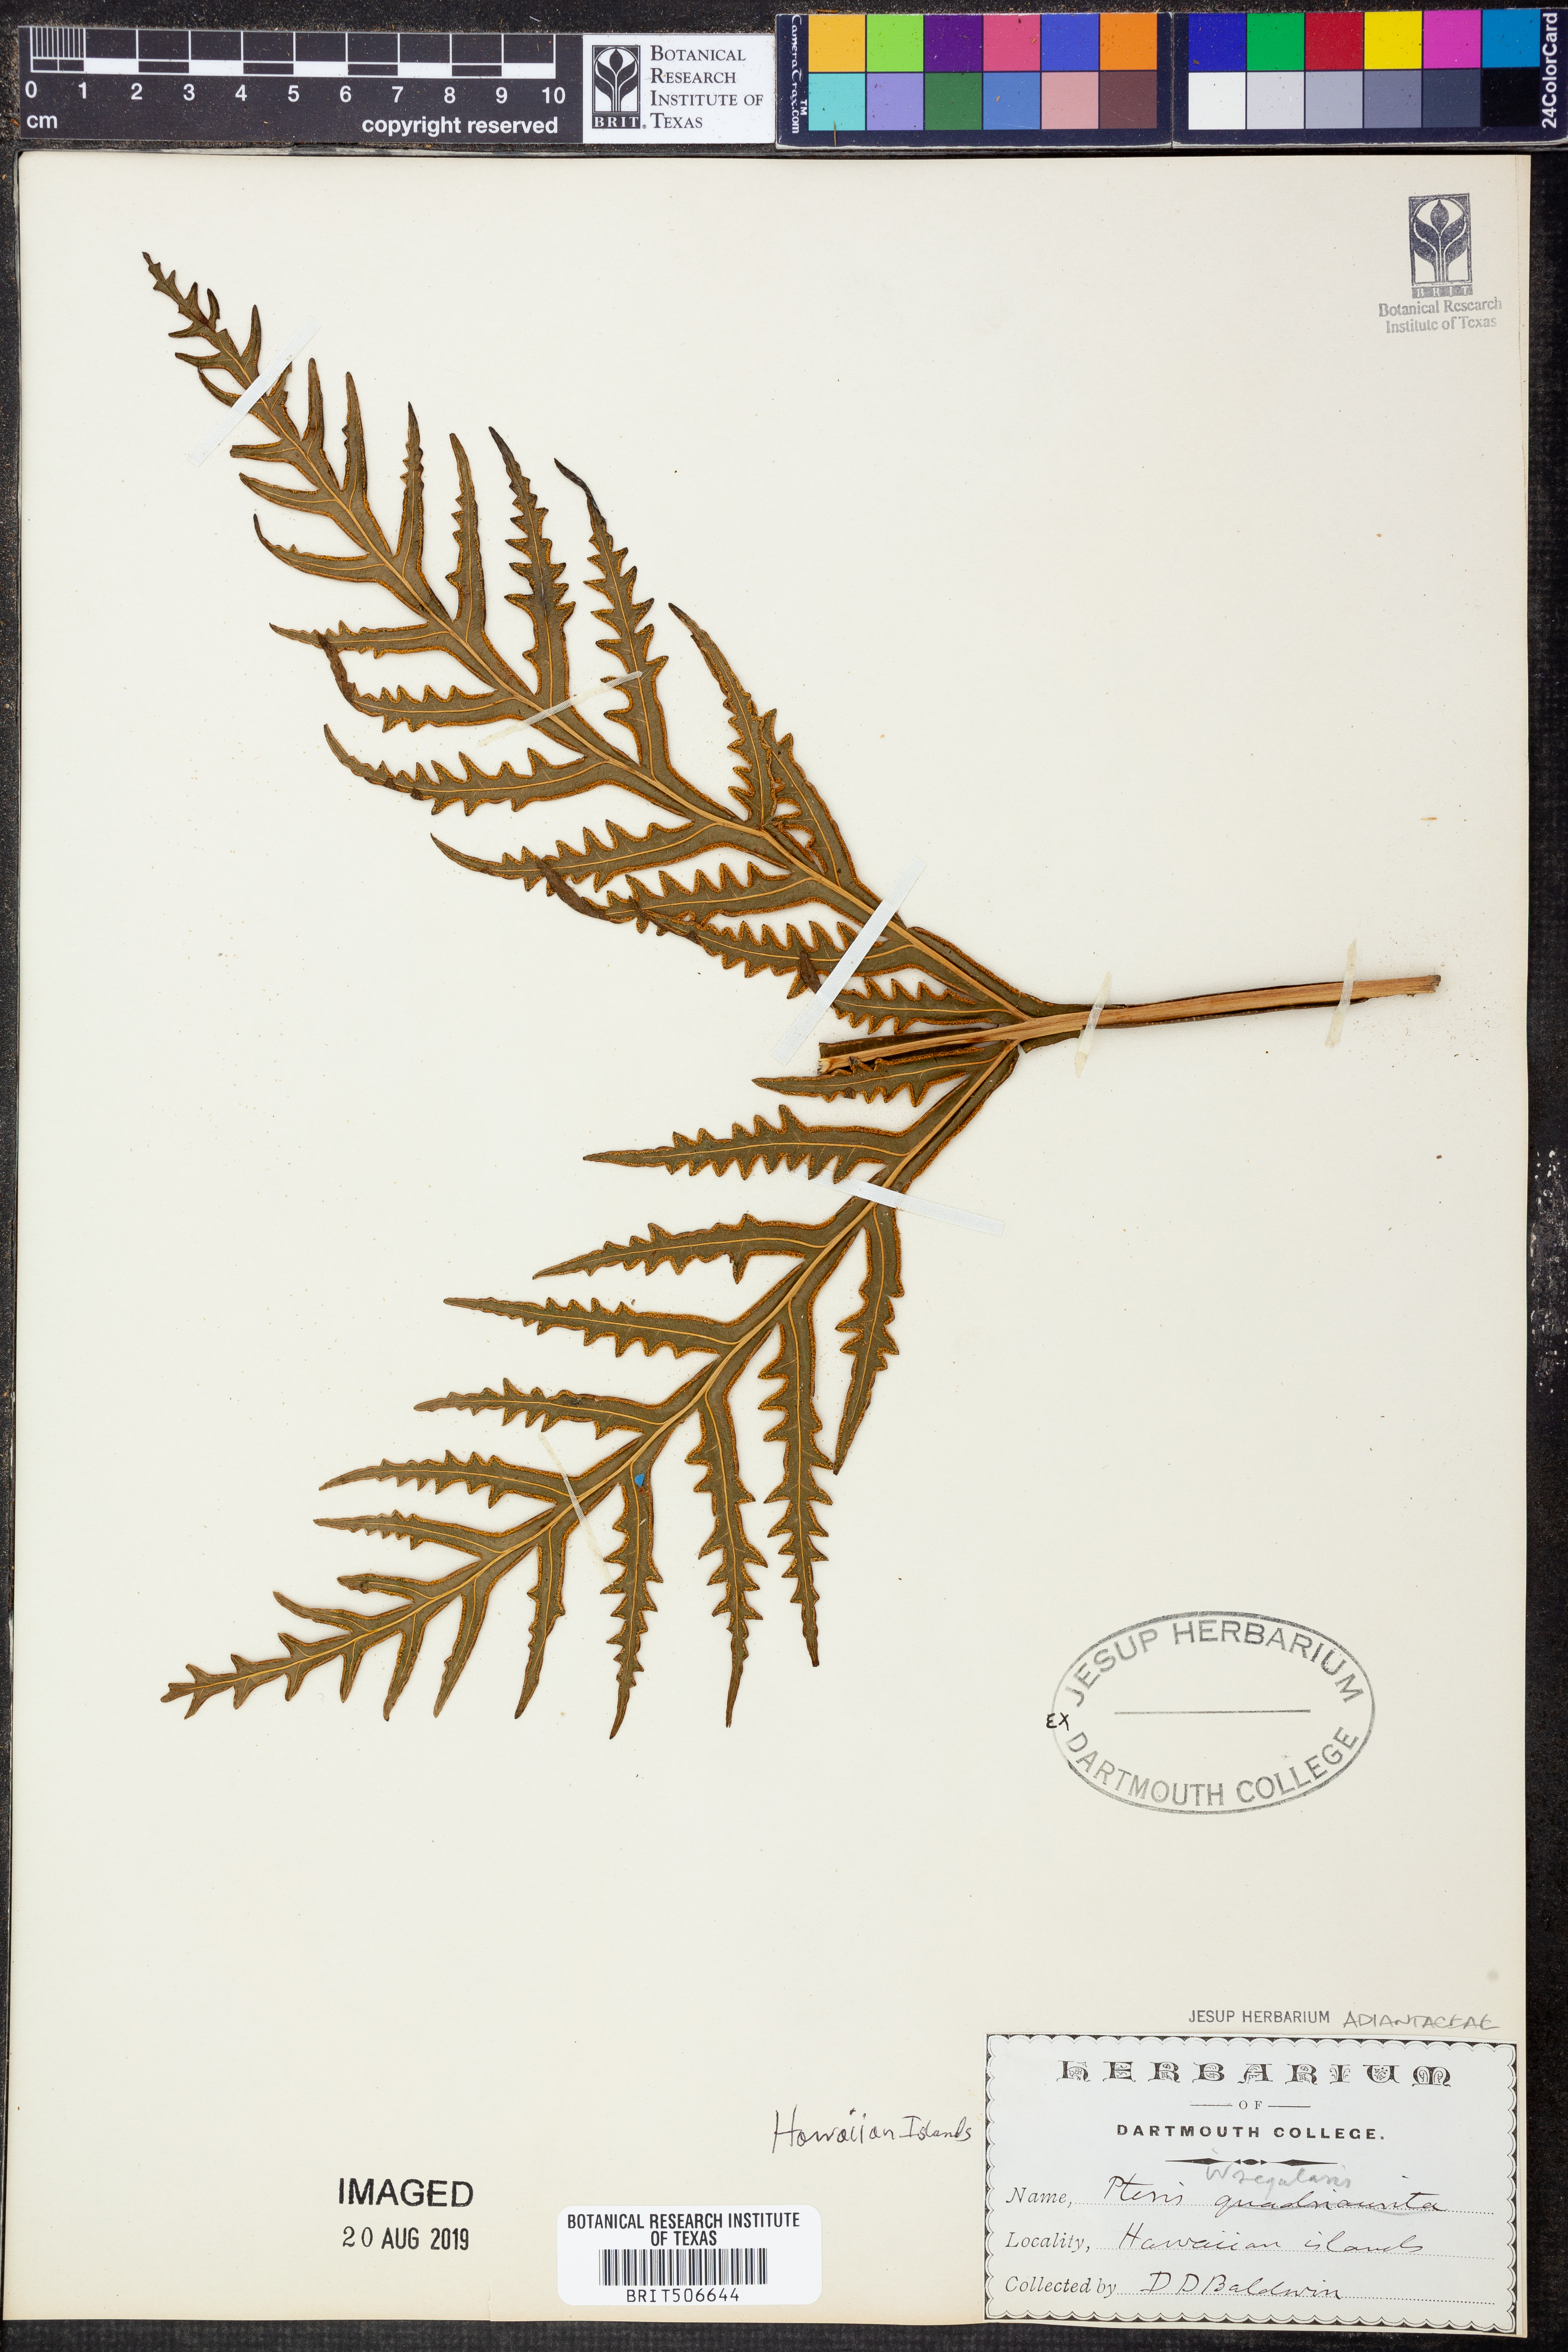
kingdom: Plantae
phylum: Tracheophyta
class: Polypodiopsida
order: Polypodiales
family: Pteridaceae
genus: Pteris
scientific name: Pteris irregularis
